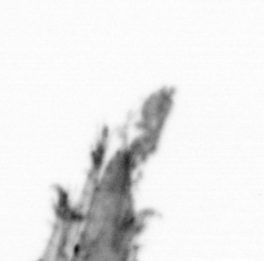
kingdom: Animalia
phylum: Chordata
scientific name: Chordata
